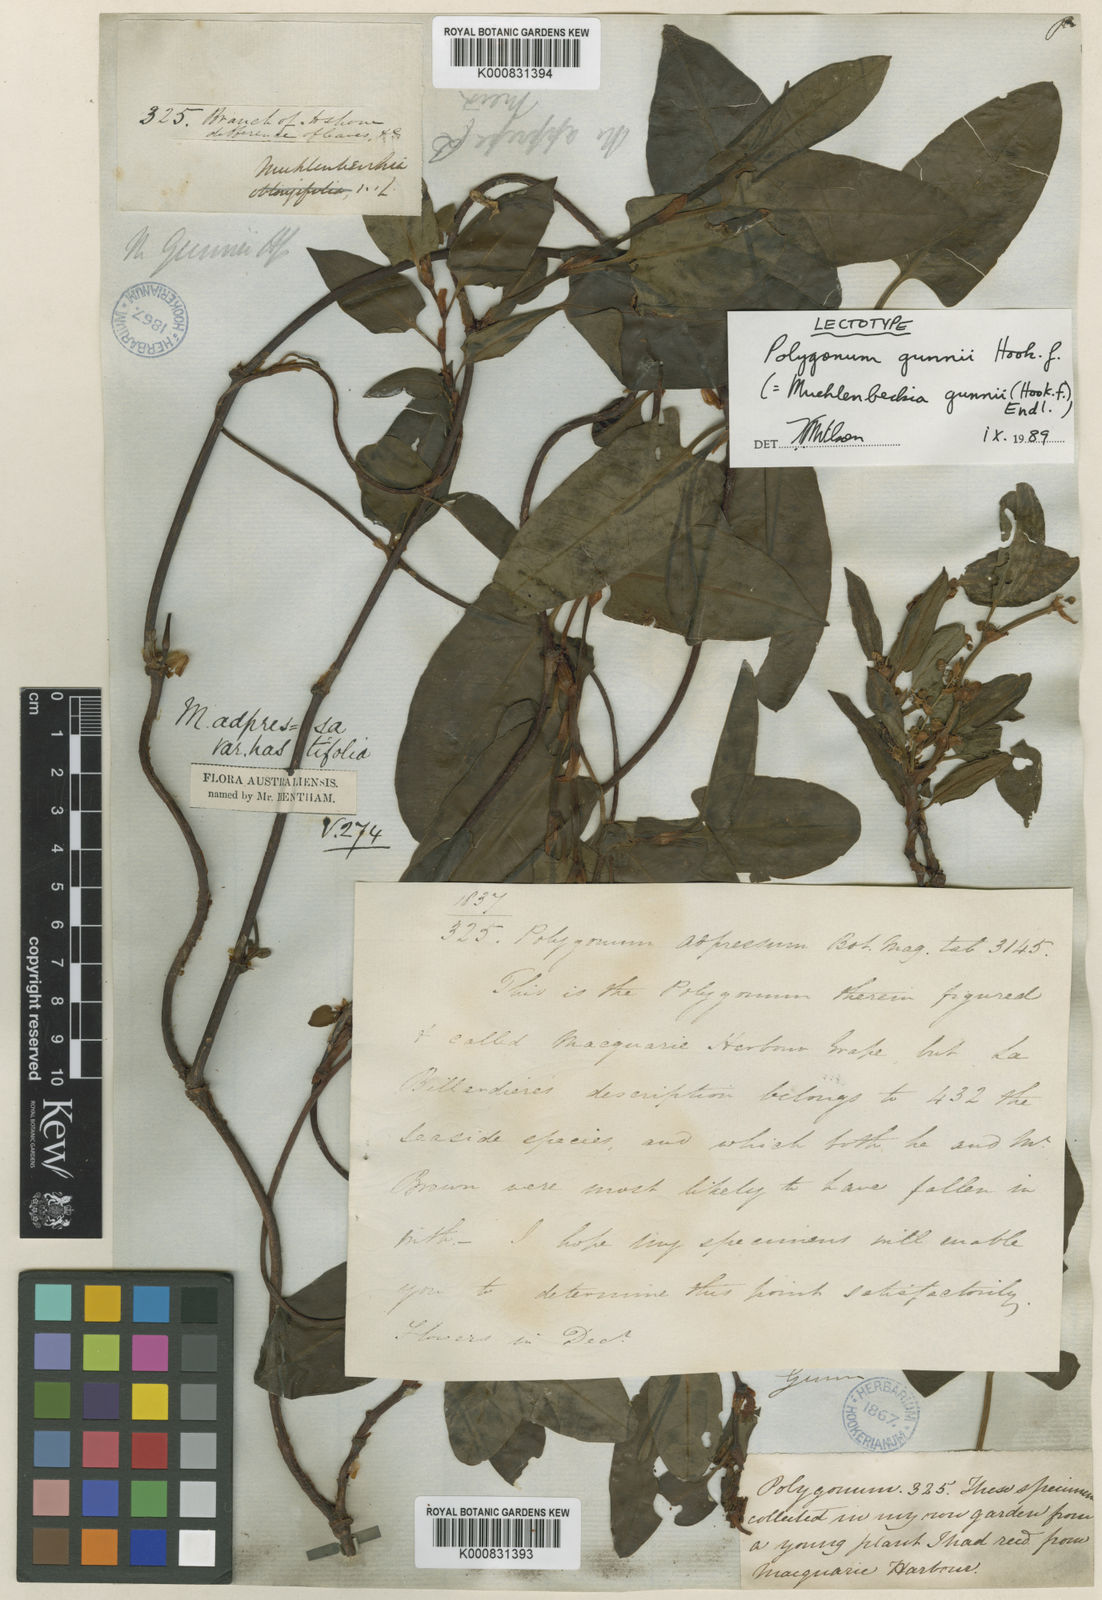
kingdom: Plantae
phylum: Tracheophyta
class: Magnoliopsida
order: Caryophyllales
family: Polygonaceae
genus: Muehlenbeckia
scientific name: Muehlenbeckia gunnii
